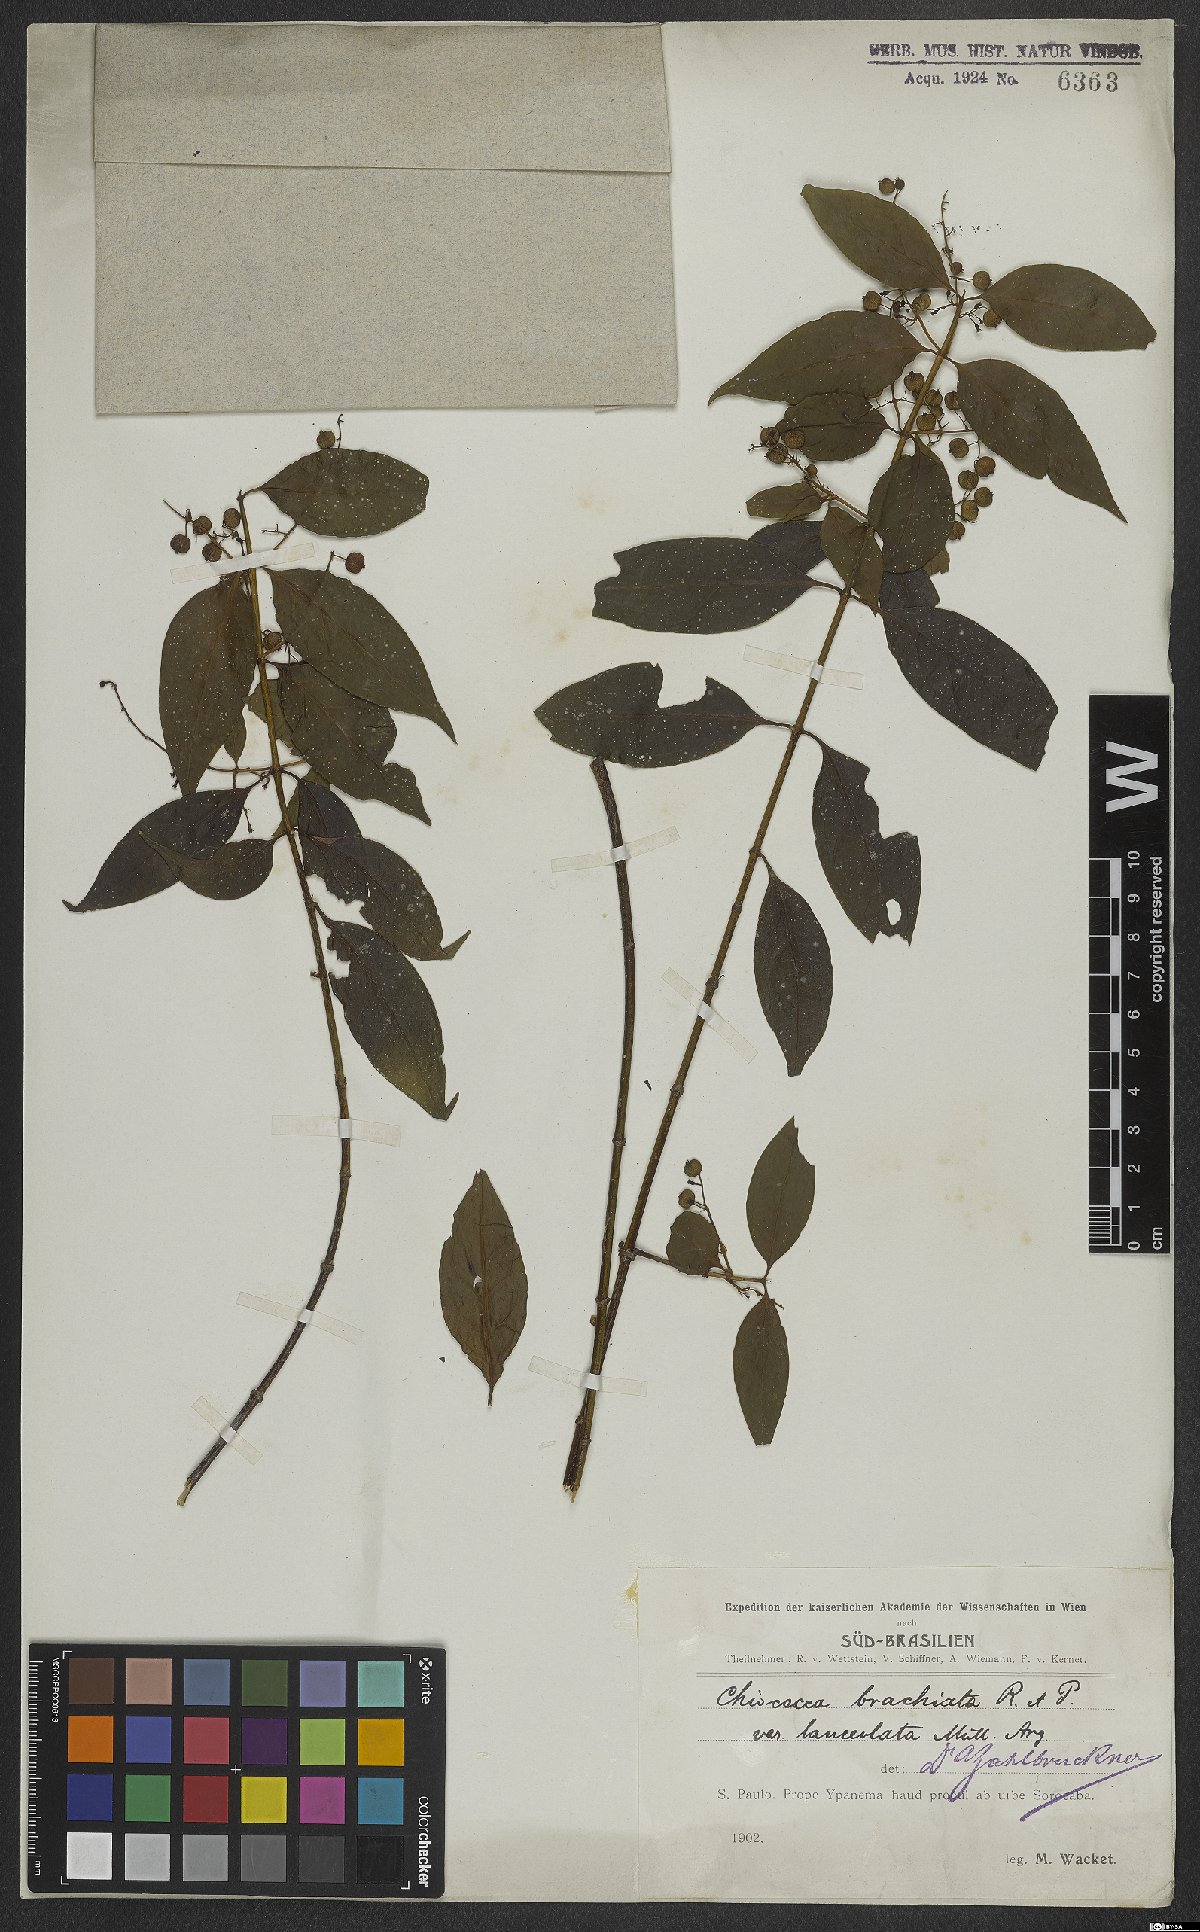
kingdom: Plantae
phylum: Tracheophyta
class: Magnoliopsida
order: Gentianales
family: Rubiaceae
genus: Chiococca
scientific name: Chiococca alba
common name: Snowberry
